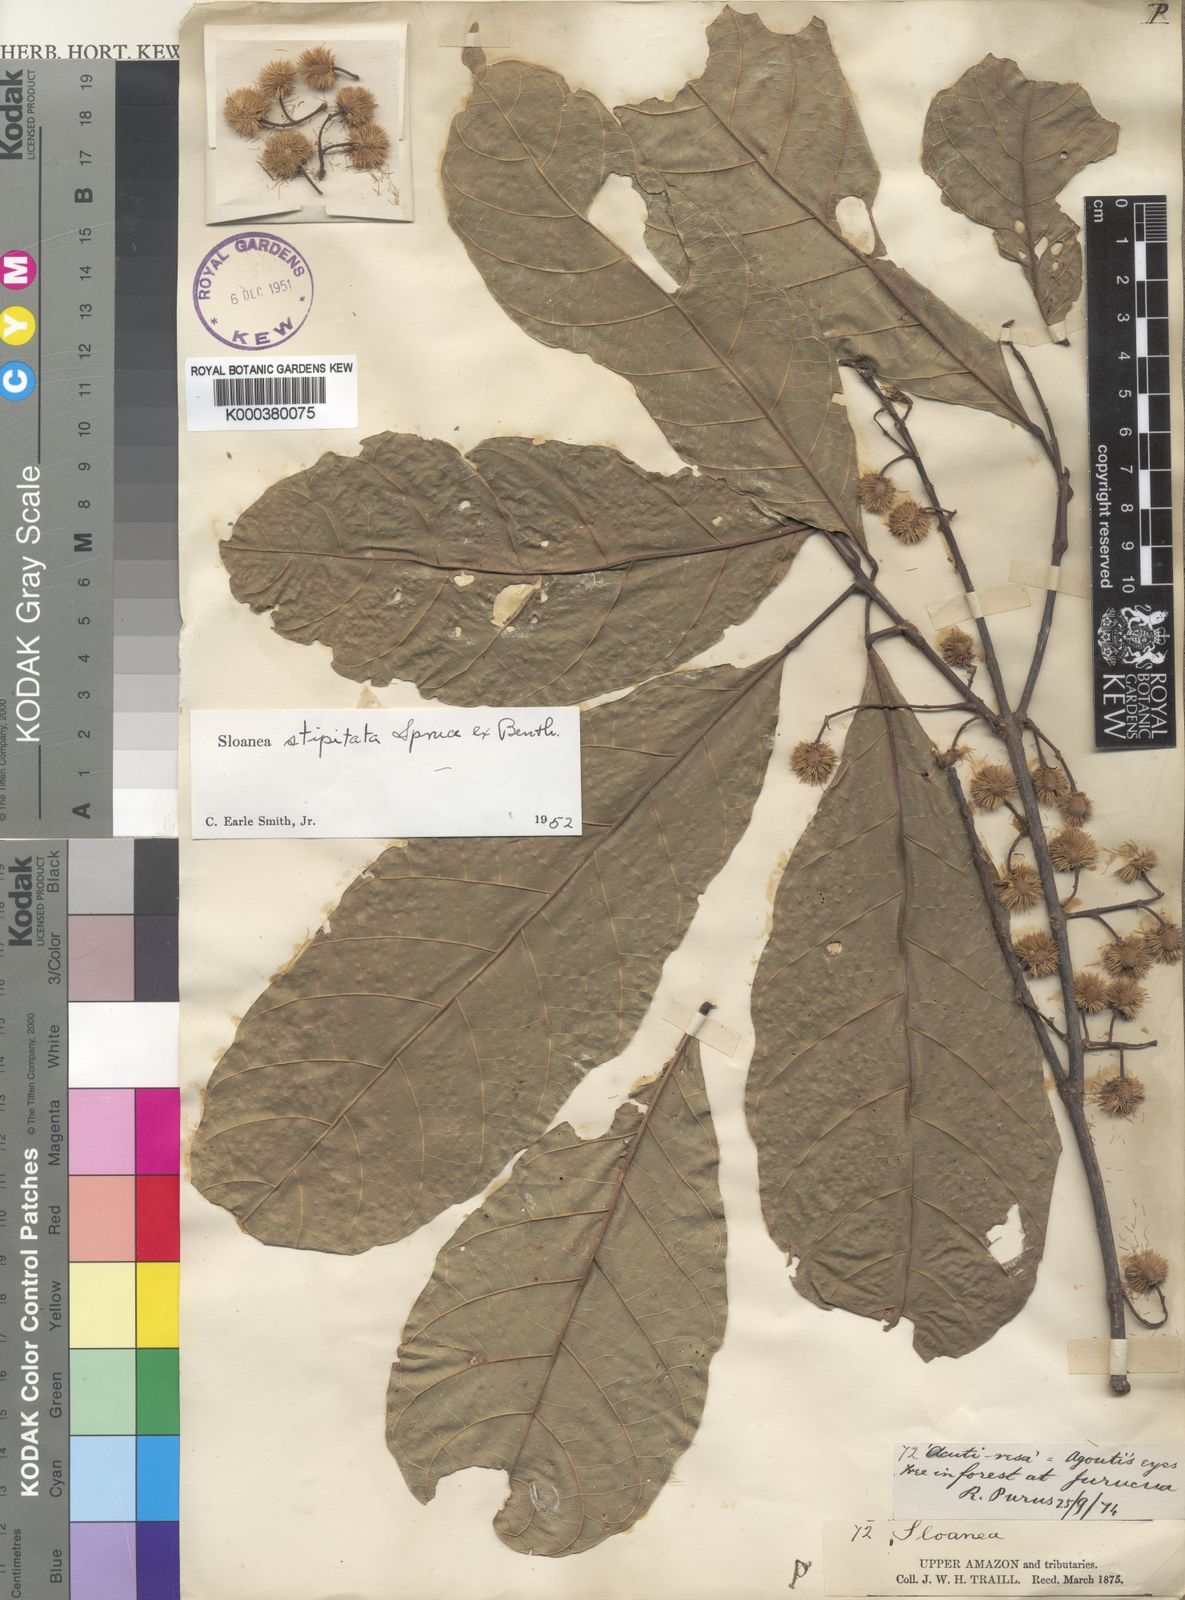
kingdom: Plantae
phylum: Tracheophyta
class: Magnoliopsida
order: Oxalidales
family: Elaeocarpaceae
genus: Sloanea
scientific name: Sloanea guianensis
